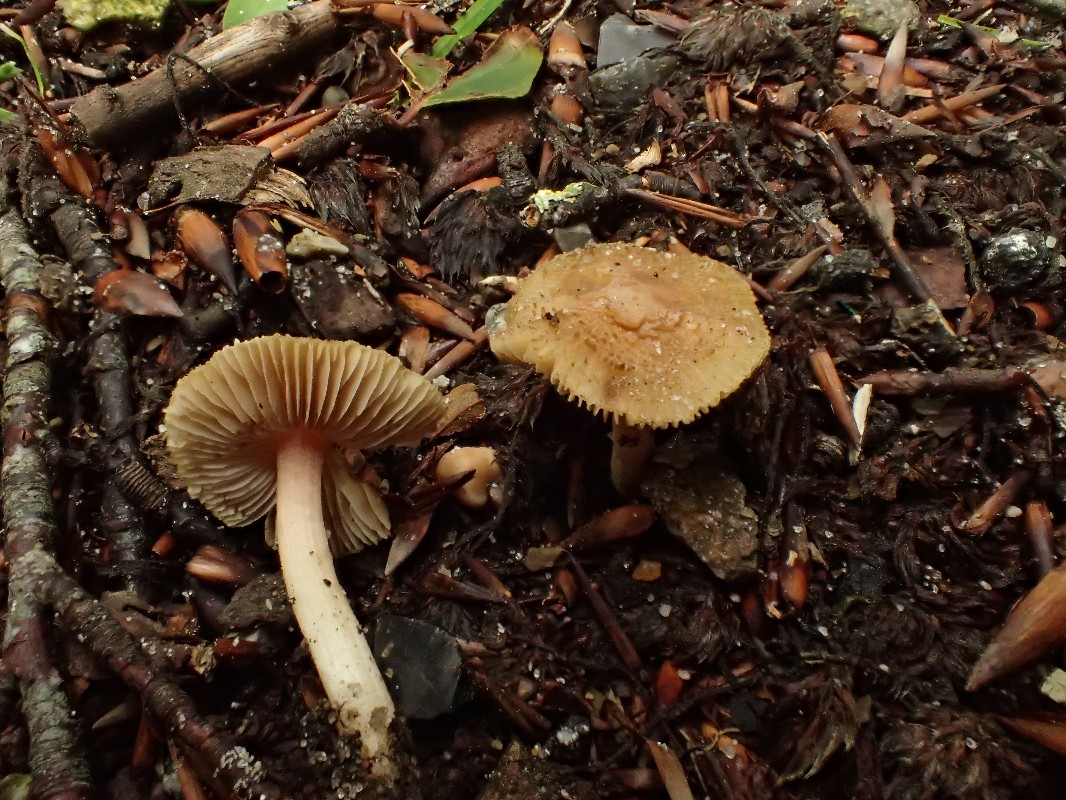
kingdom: Fungi
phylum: Basidiomycota
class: Agaricomycetes
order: Agaricales
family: Inocybaceae
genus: Inocybe
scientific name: Inocybe hirtella
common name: mandel-trævlhat
